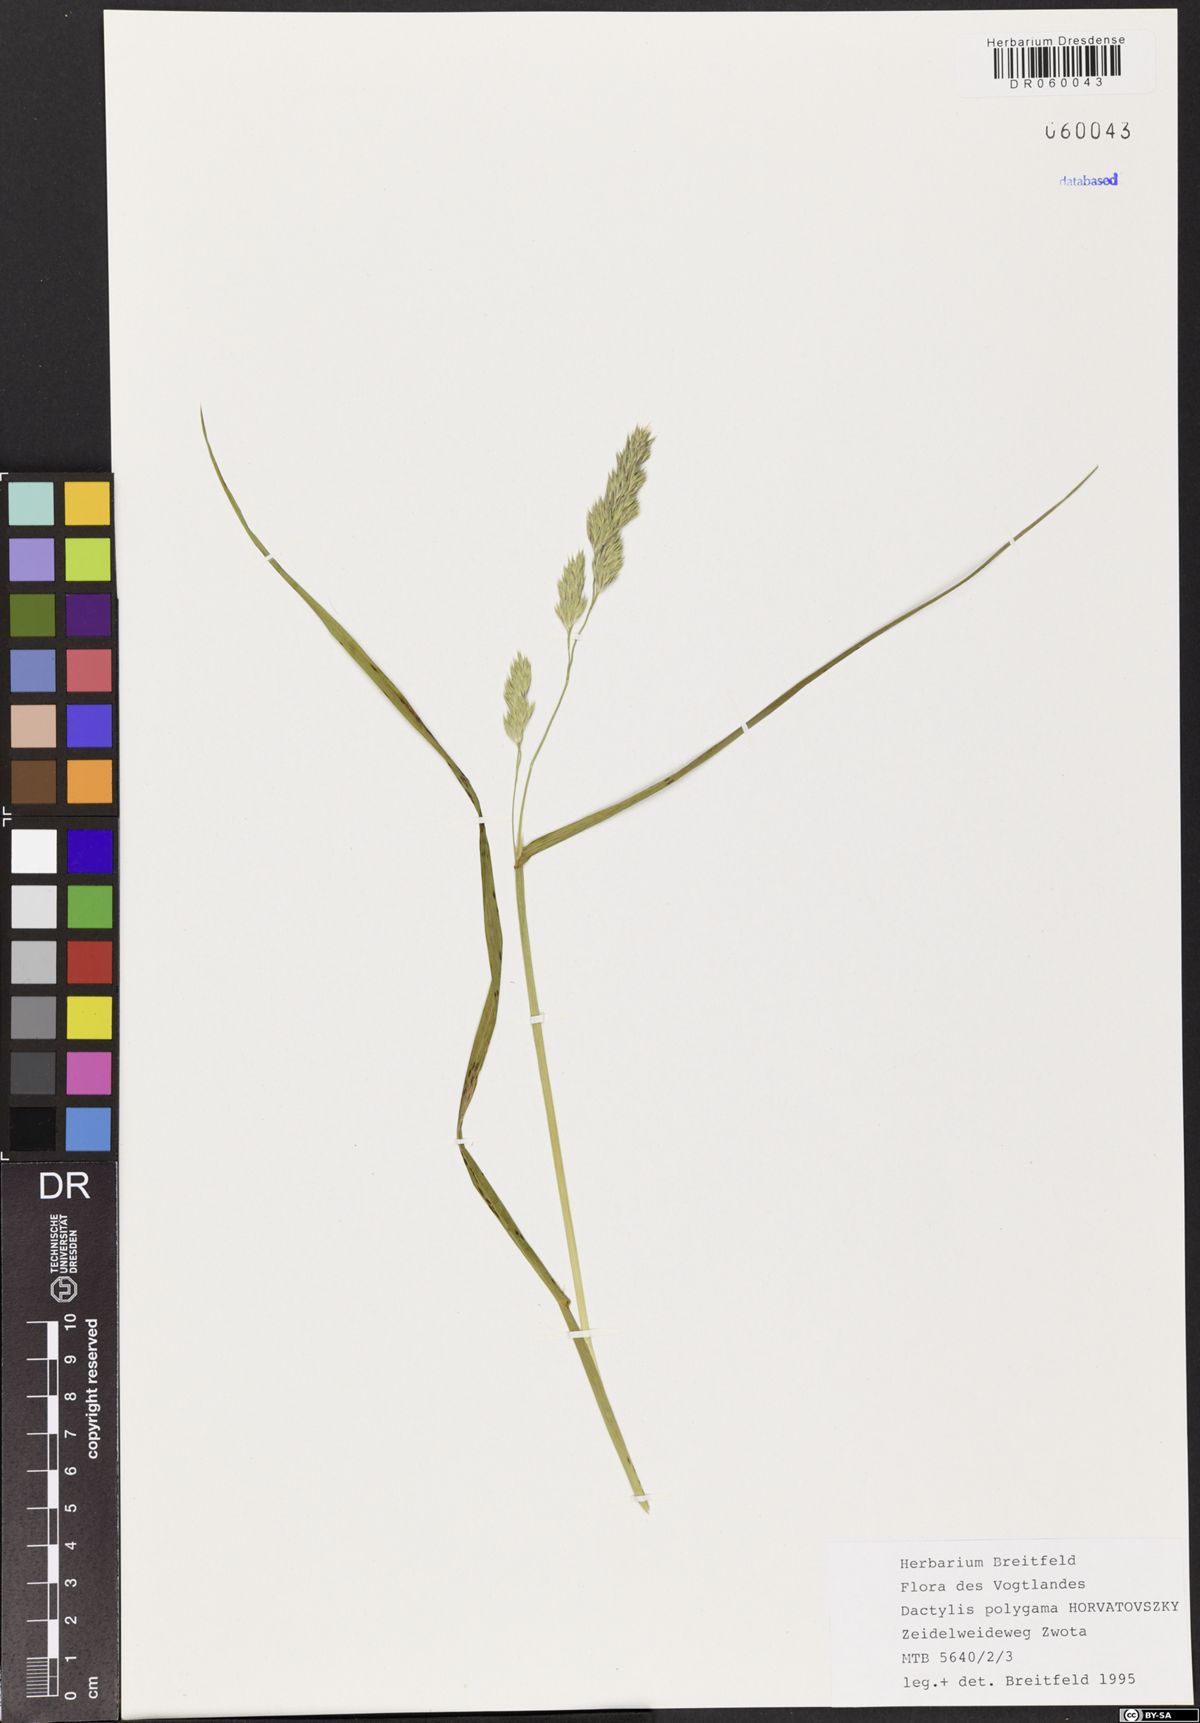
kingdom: Plantae
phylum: Tracheophyta
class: Liliopsida
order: Poales
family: Poaceae
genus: Dactylis
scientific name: Dactylis glomerata
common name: Orchardgrass
